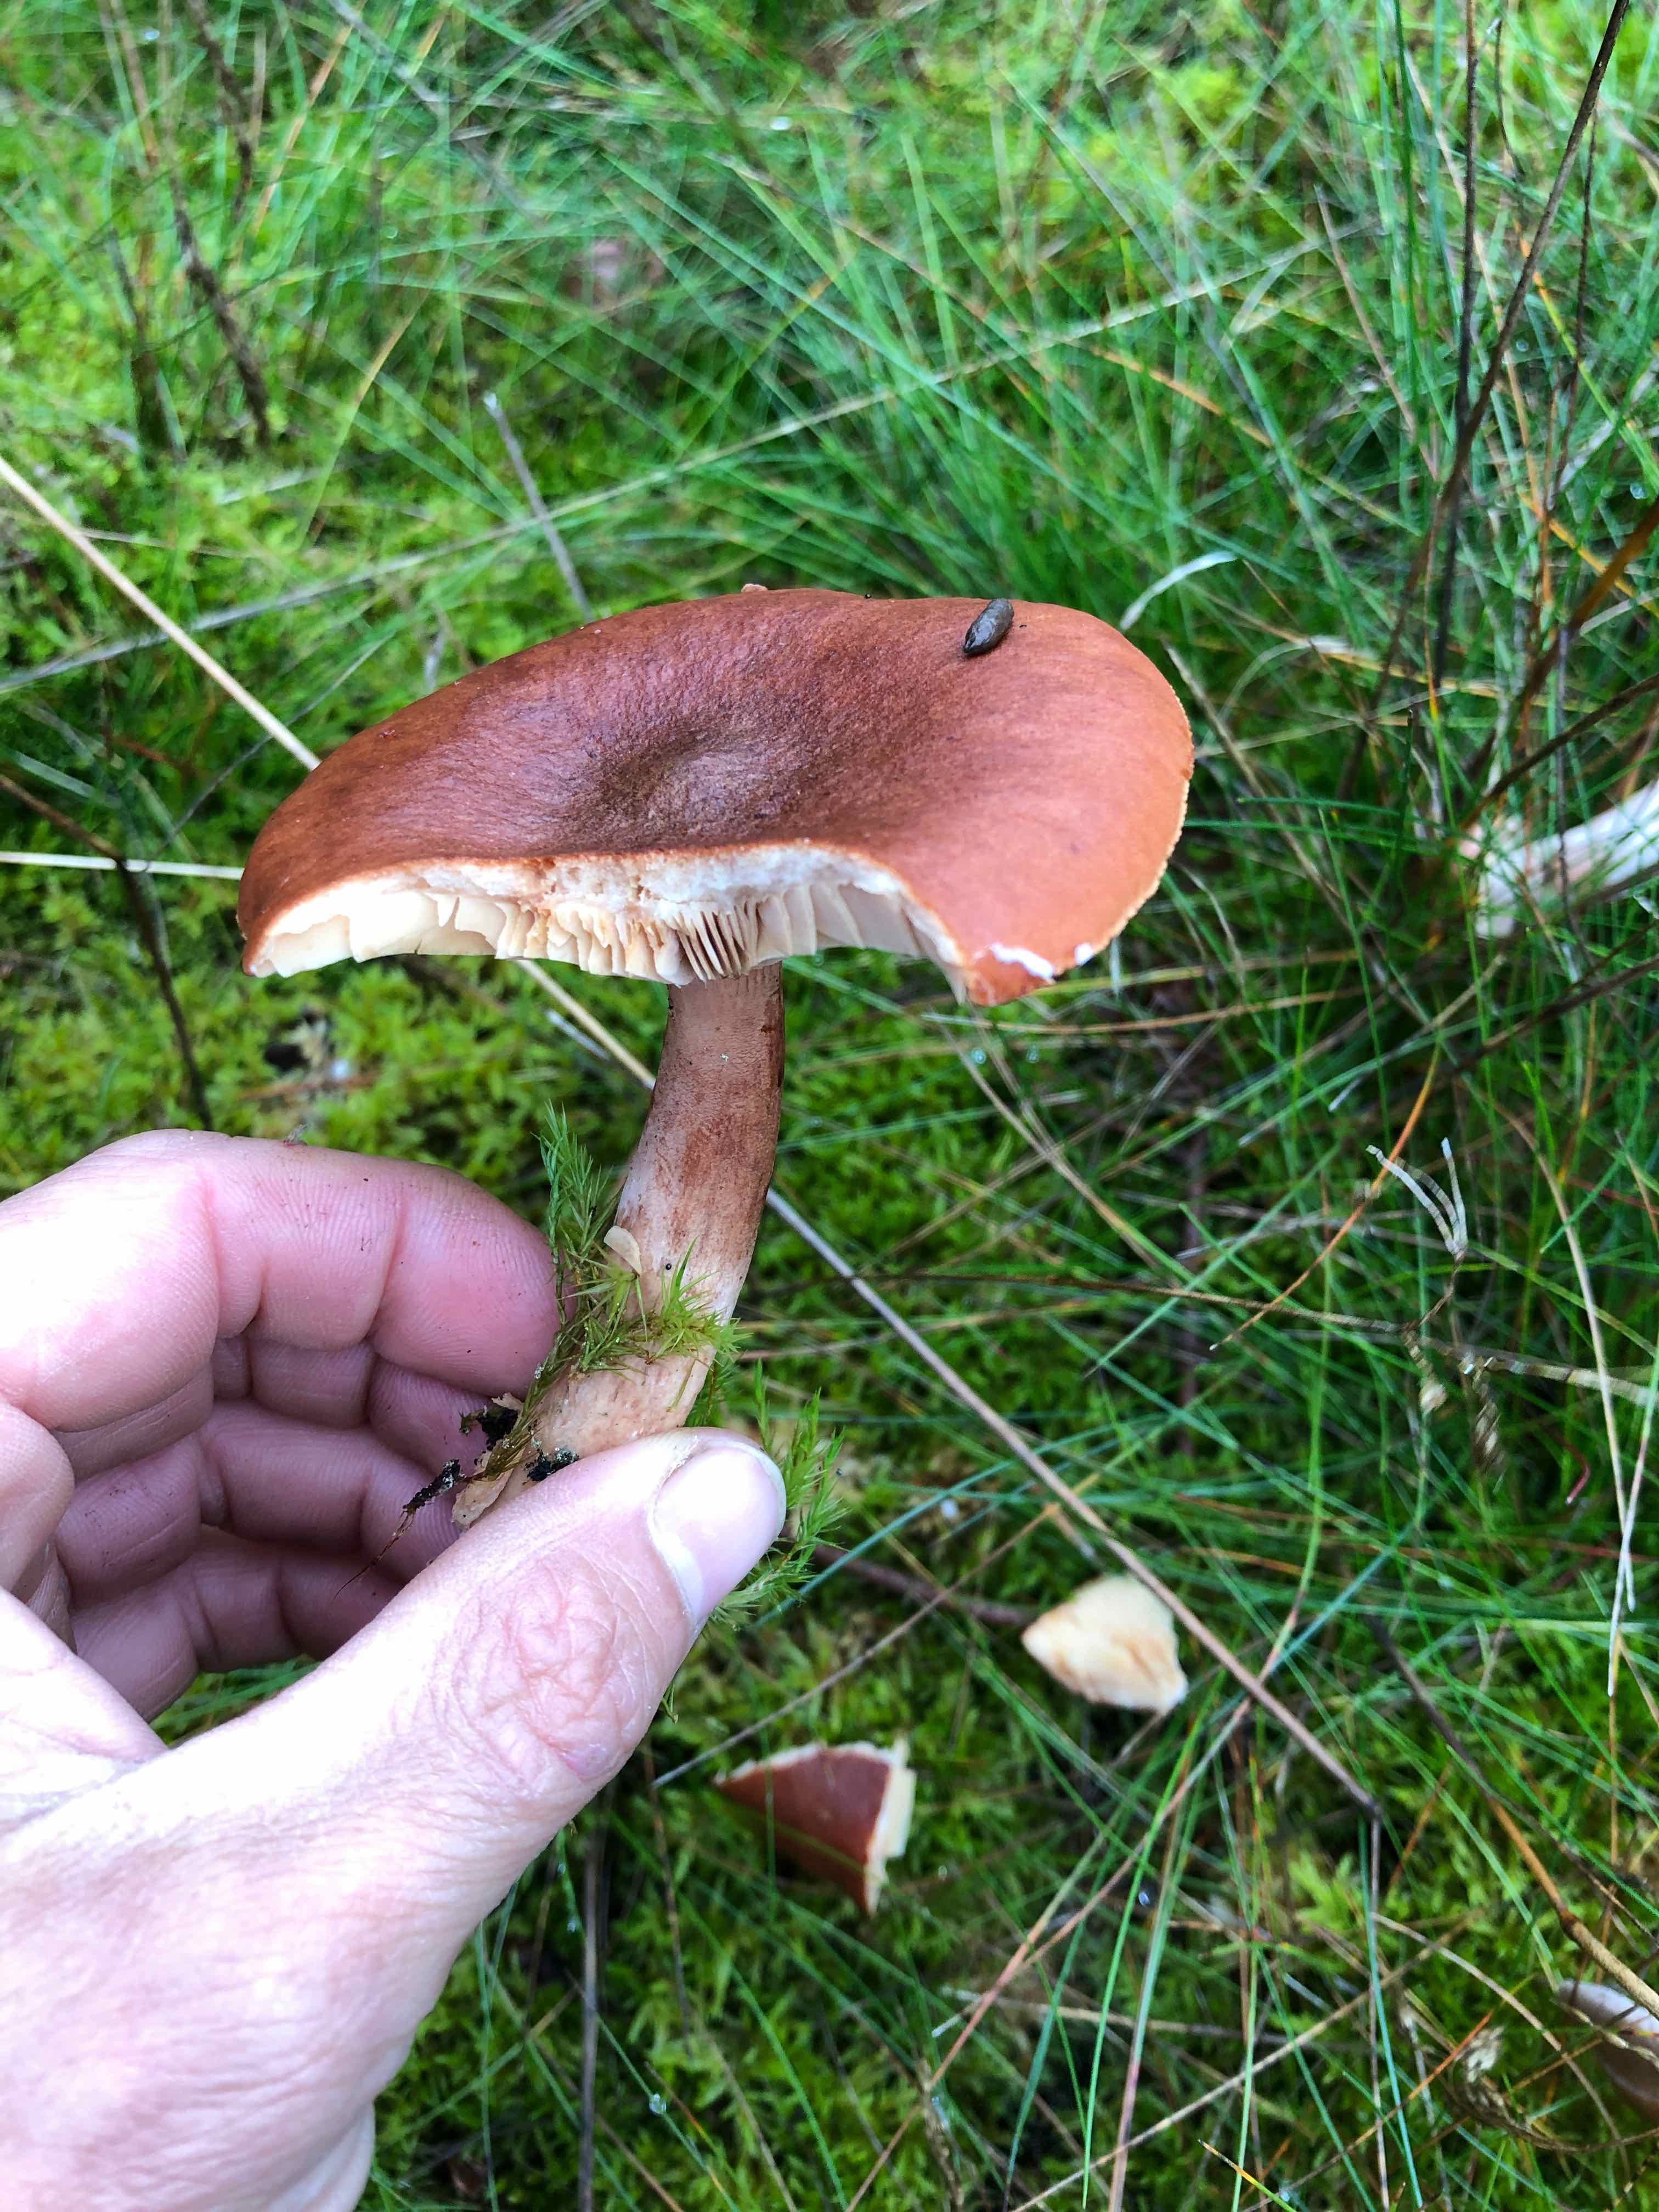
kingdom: Fungi
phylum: Basidiomycota
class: Agaricomycetes
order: Russulales
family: Russulaceae
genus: Lactarius
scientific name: Lactarius rufus
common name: rødbrun mælkehat
